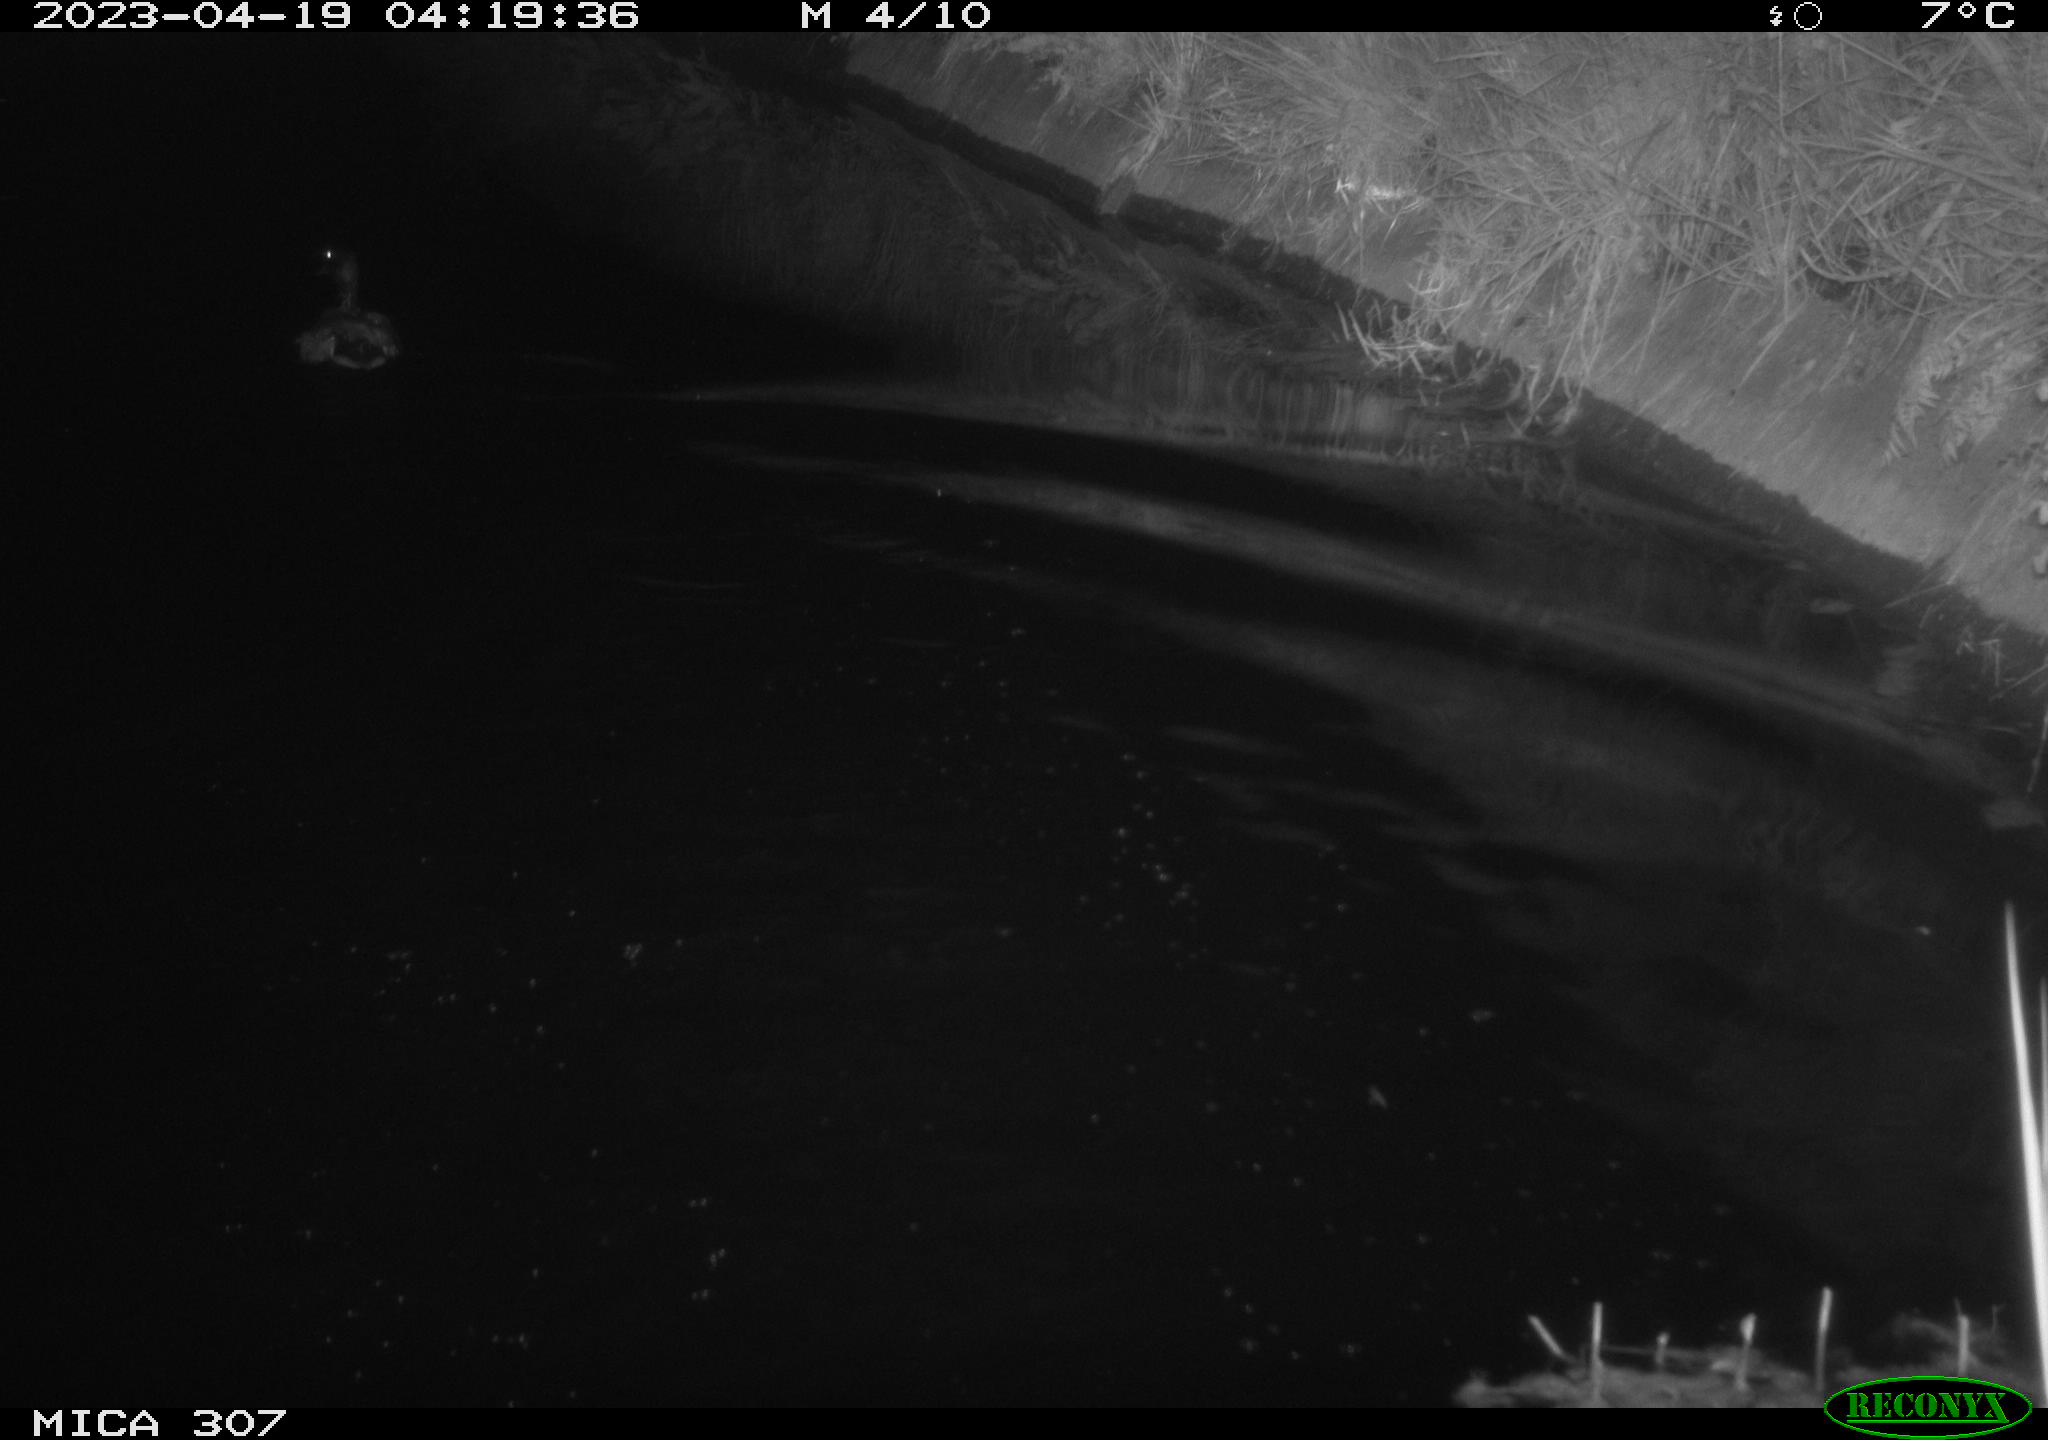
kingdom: Animalia
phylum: Chordata
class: Aves
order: Anseriformes
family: Anatidae
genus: Anas
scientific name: Anas
